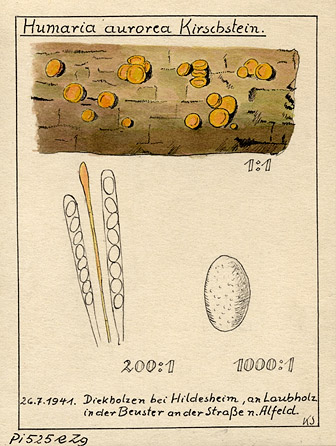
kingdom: Fungi
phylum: Ascomycota
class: Pezizomycetes
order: Pezizales
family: Pyronemataceae
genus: Miladina
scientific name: Miladina lecithina
